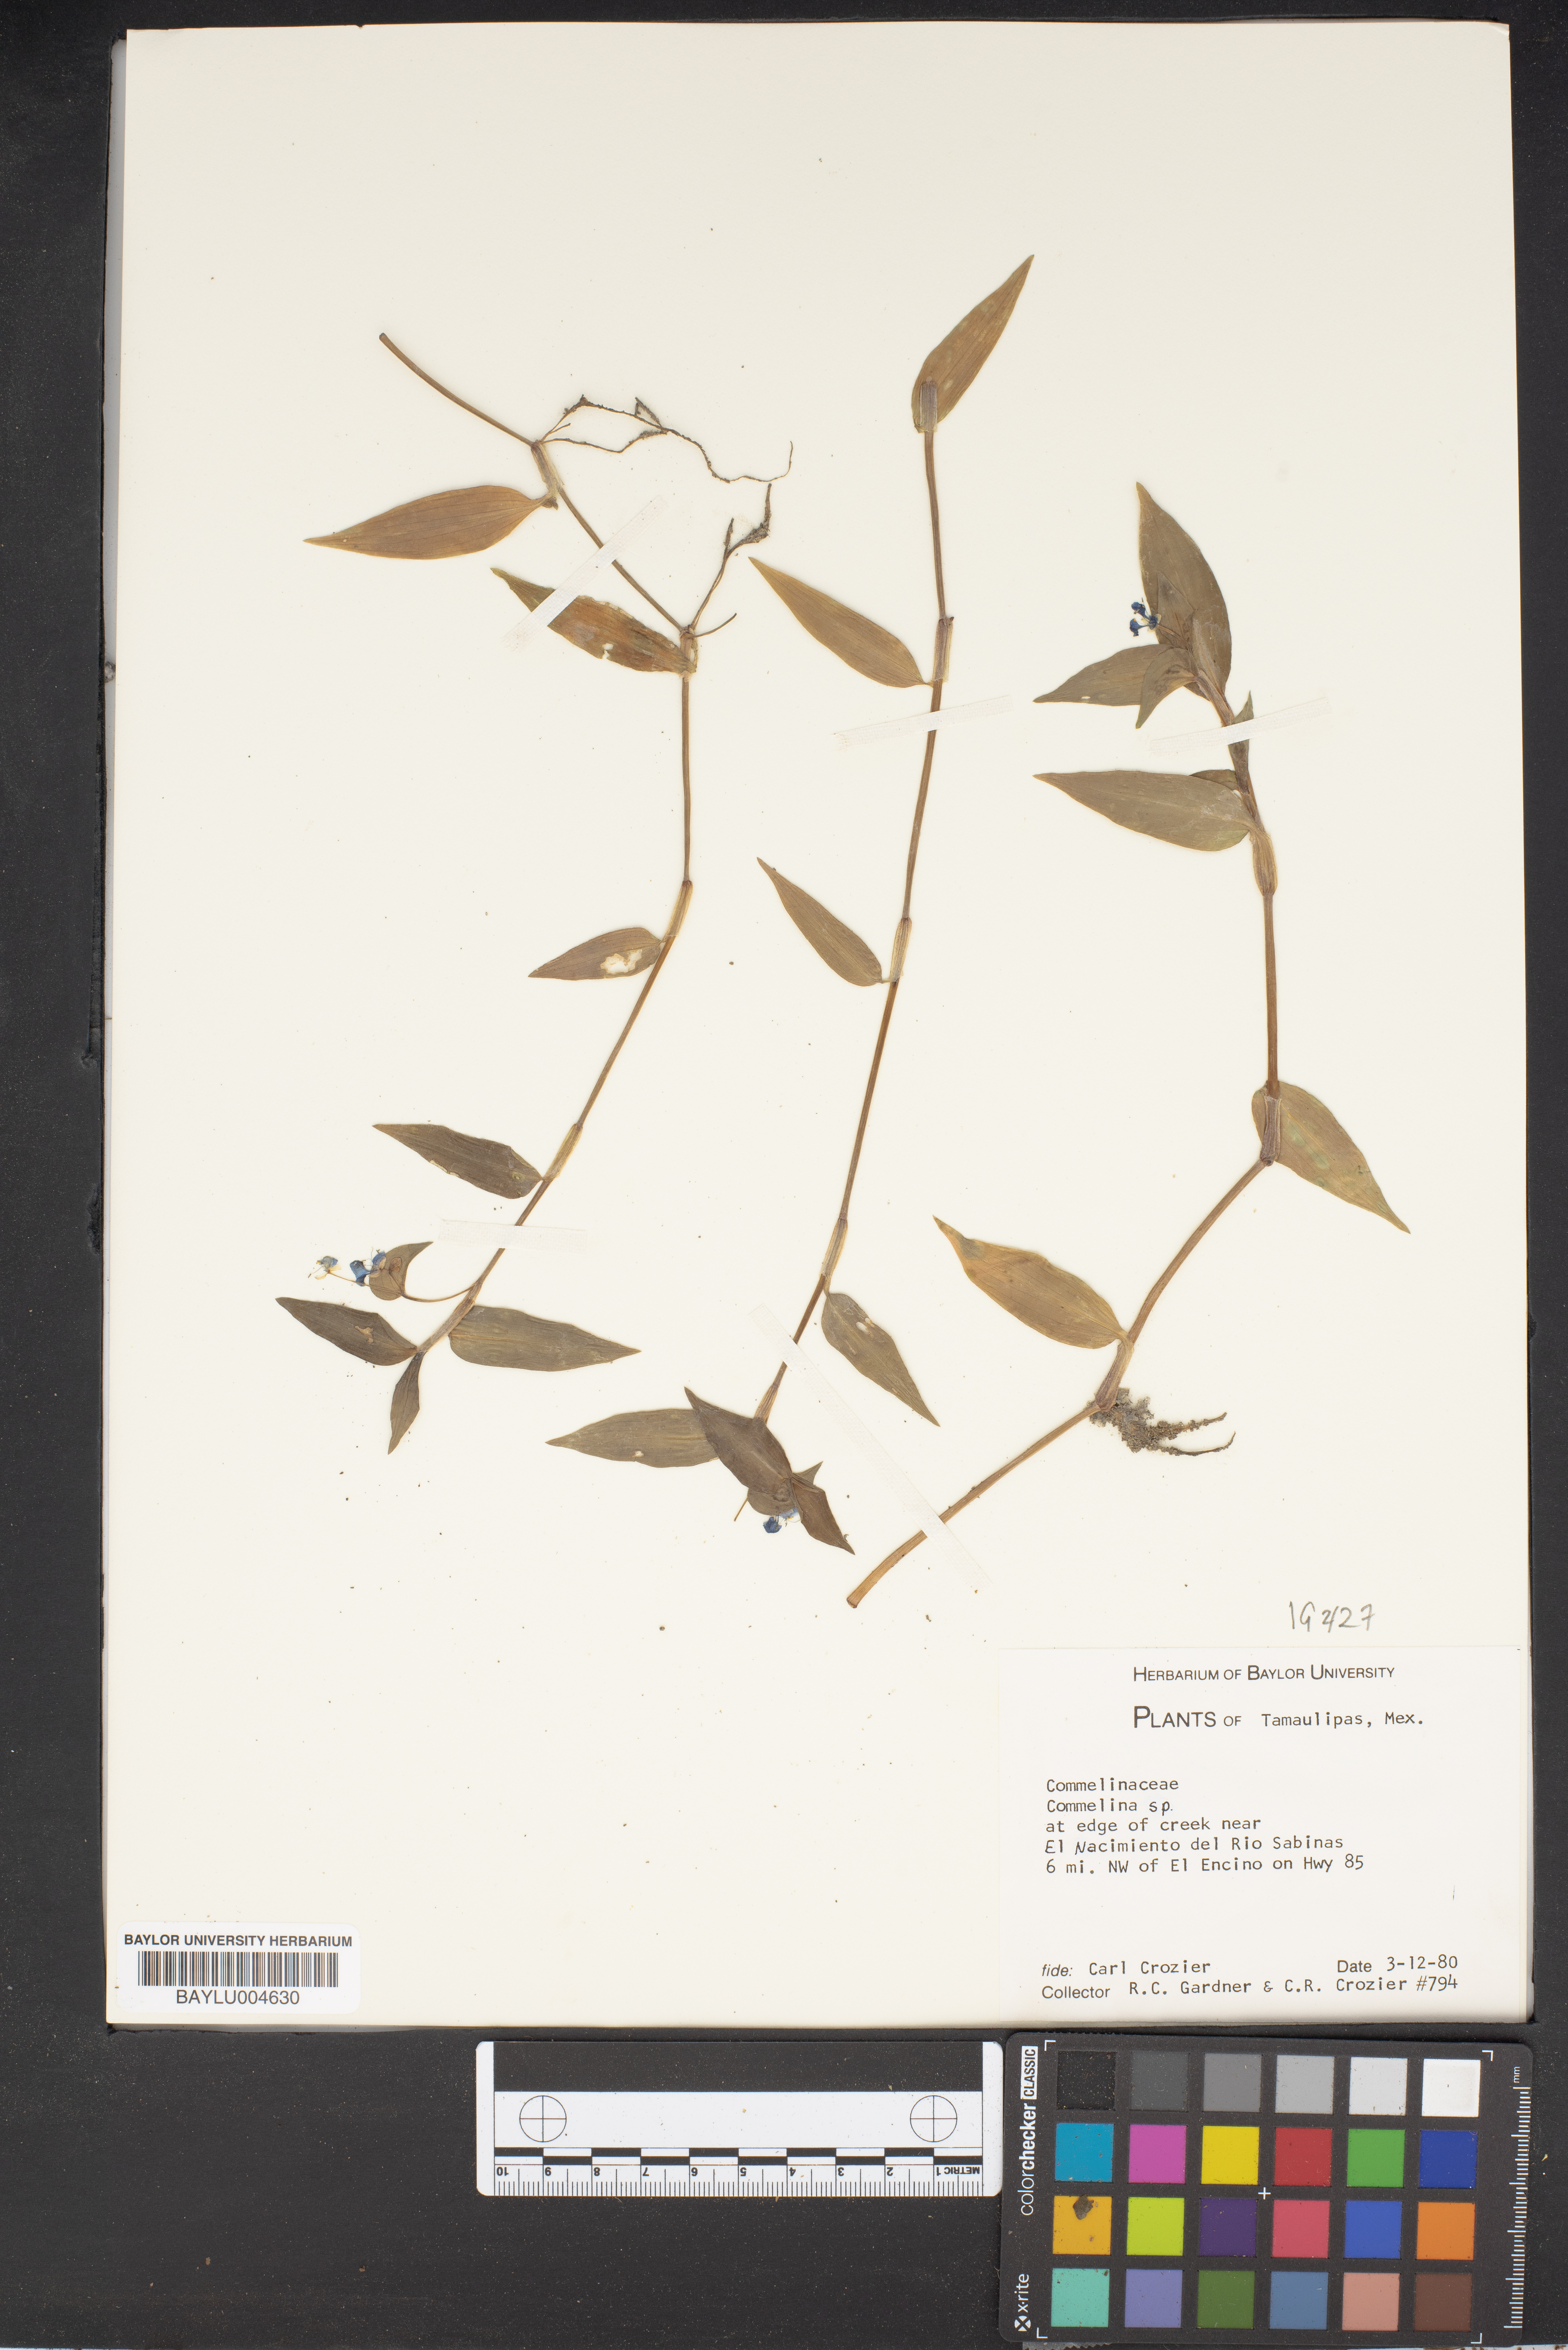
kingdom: Plantae
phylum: Tracheophyta
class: Liliopsida
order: Commelinales
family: Commelinaceae
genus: Commelina
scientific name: Commelina
